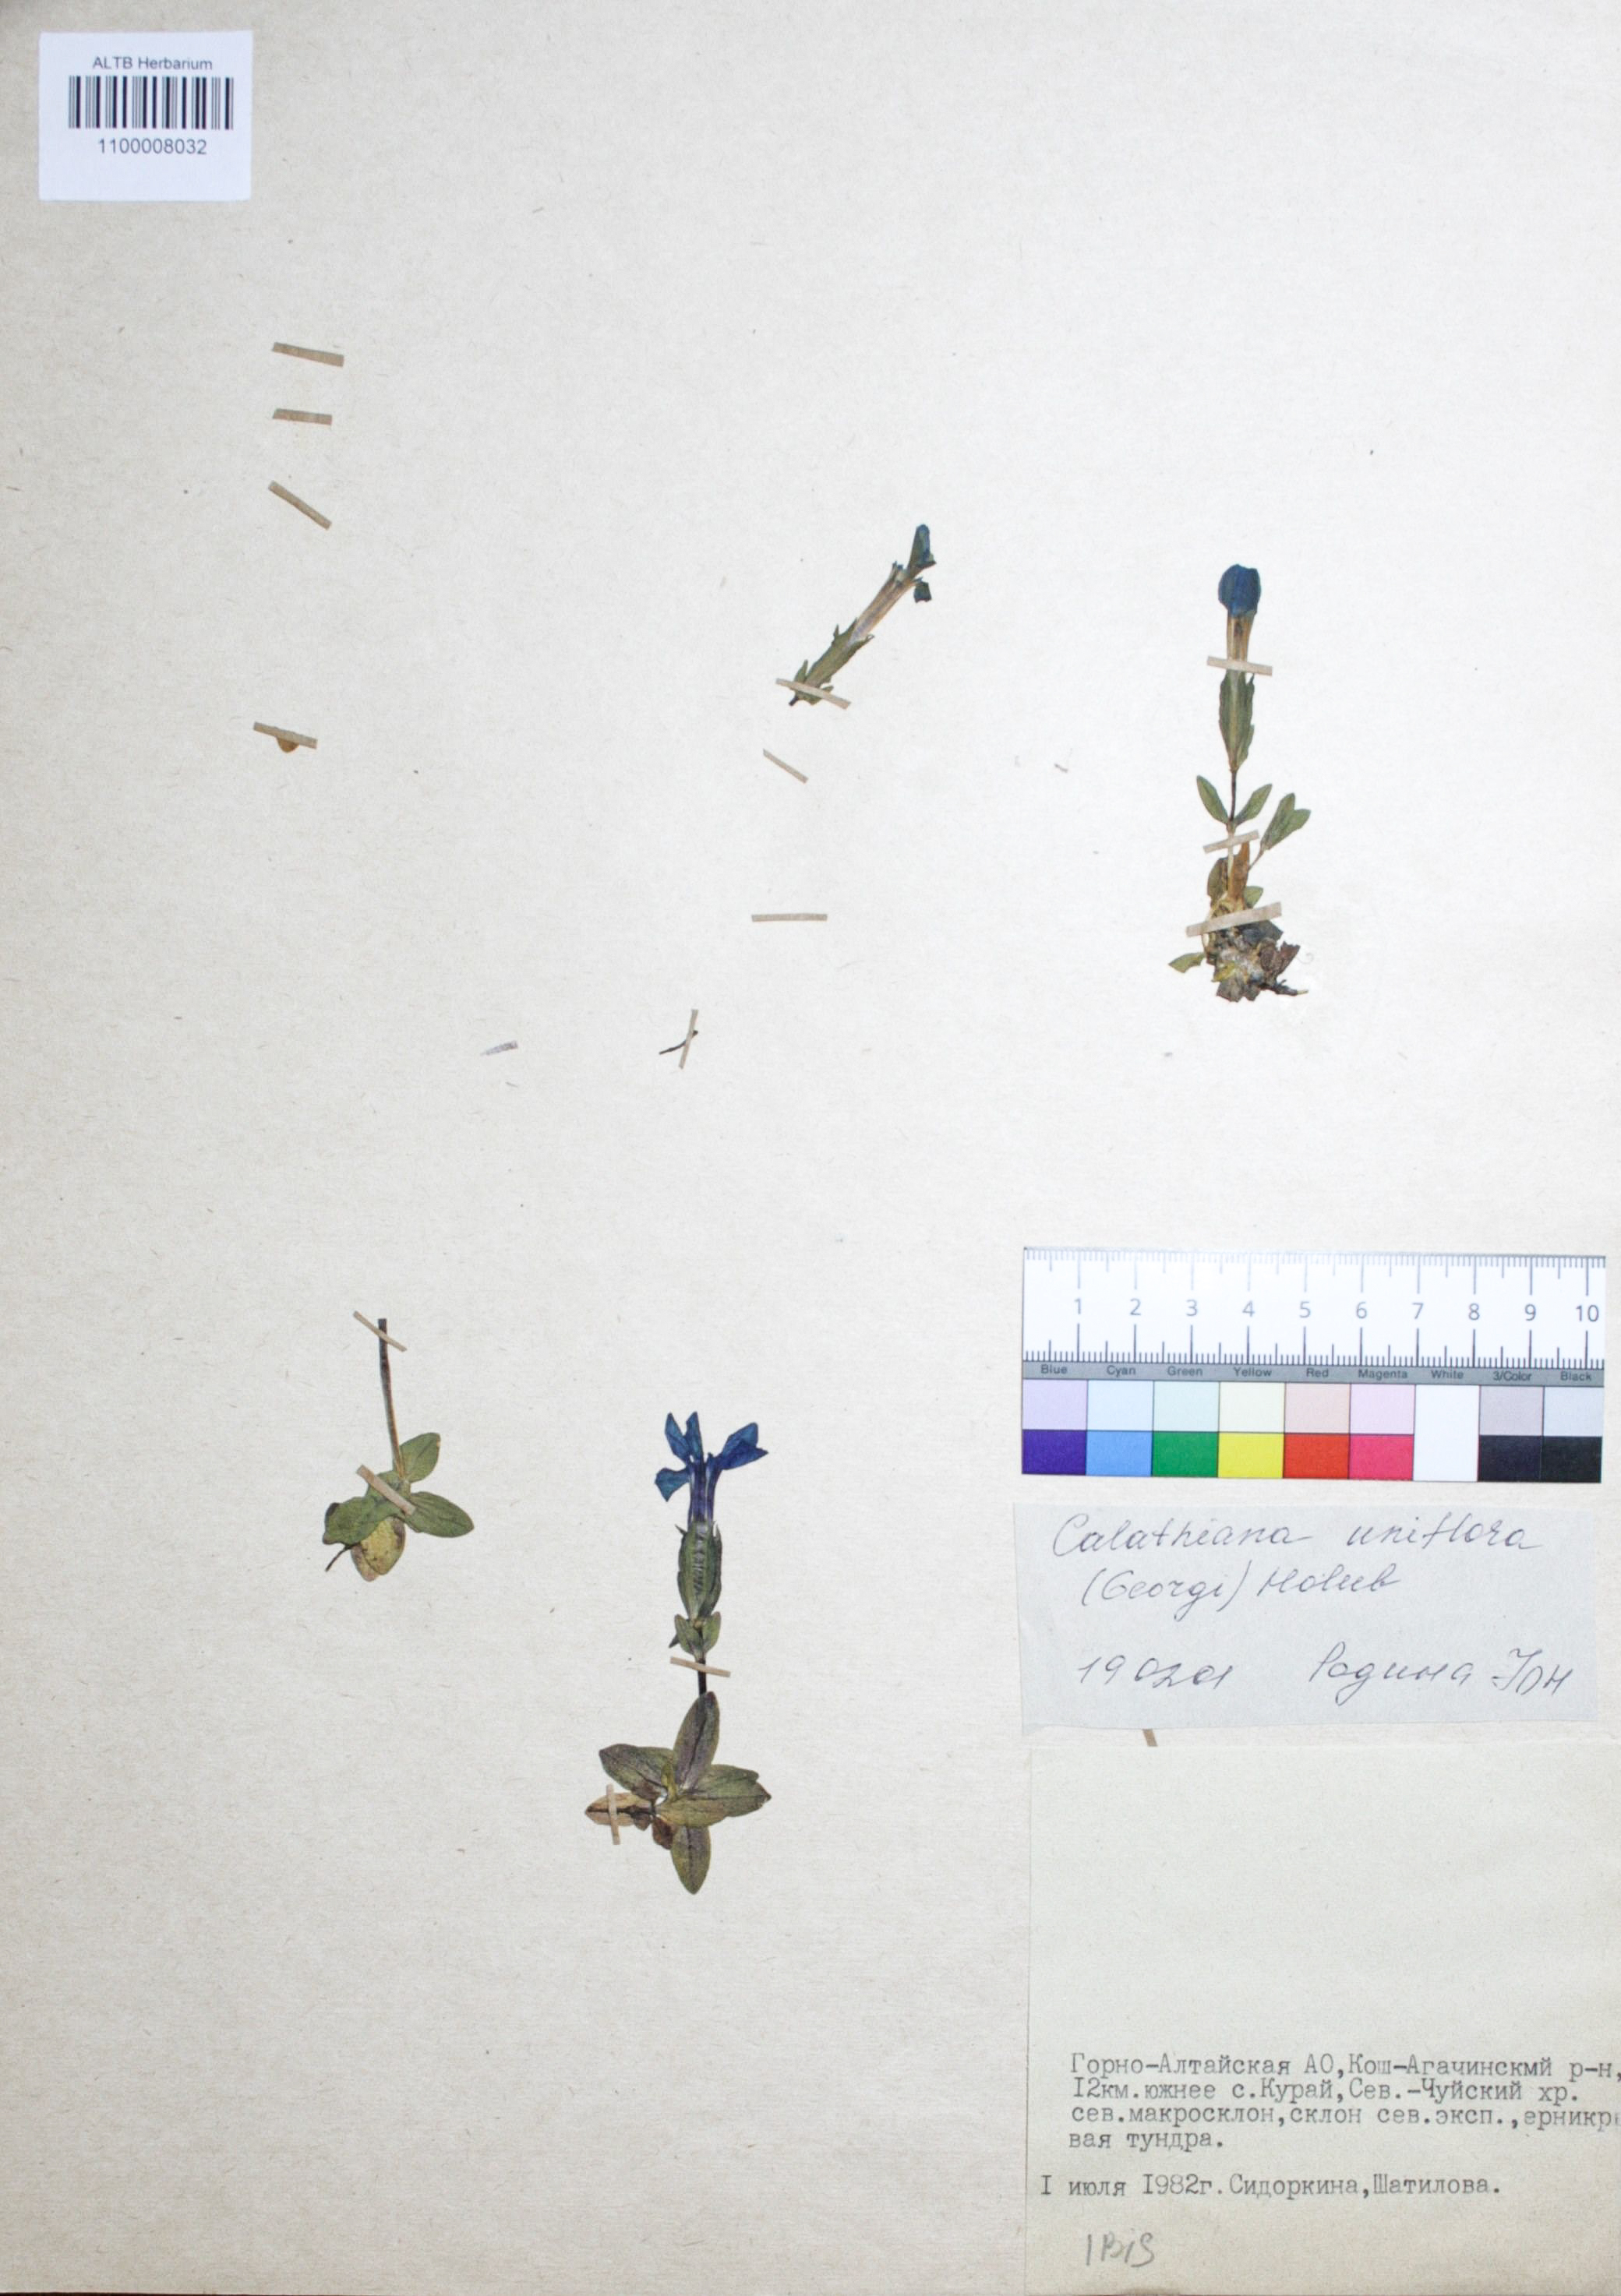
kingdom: Plantae
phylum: Tracheophyta
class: Magnoliopsida
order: Gentianales
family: Gentianaceae
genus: Gentiana
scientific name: Gentiana uniflora
